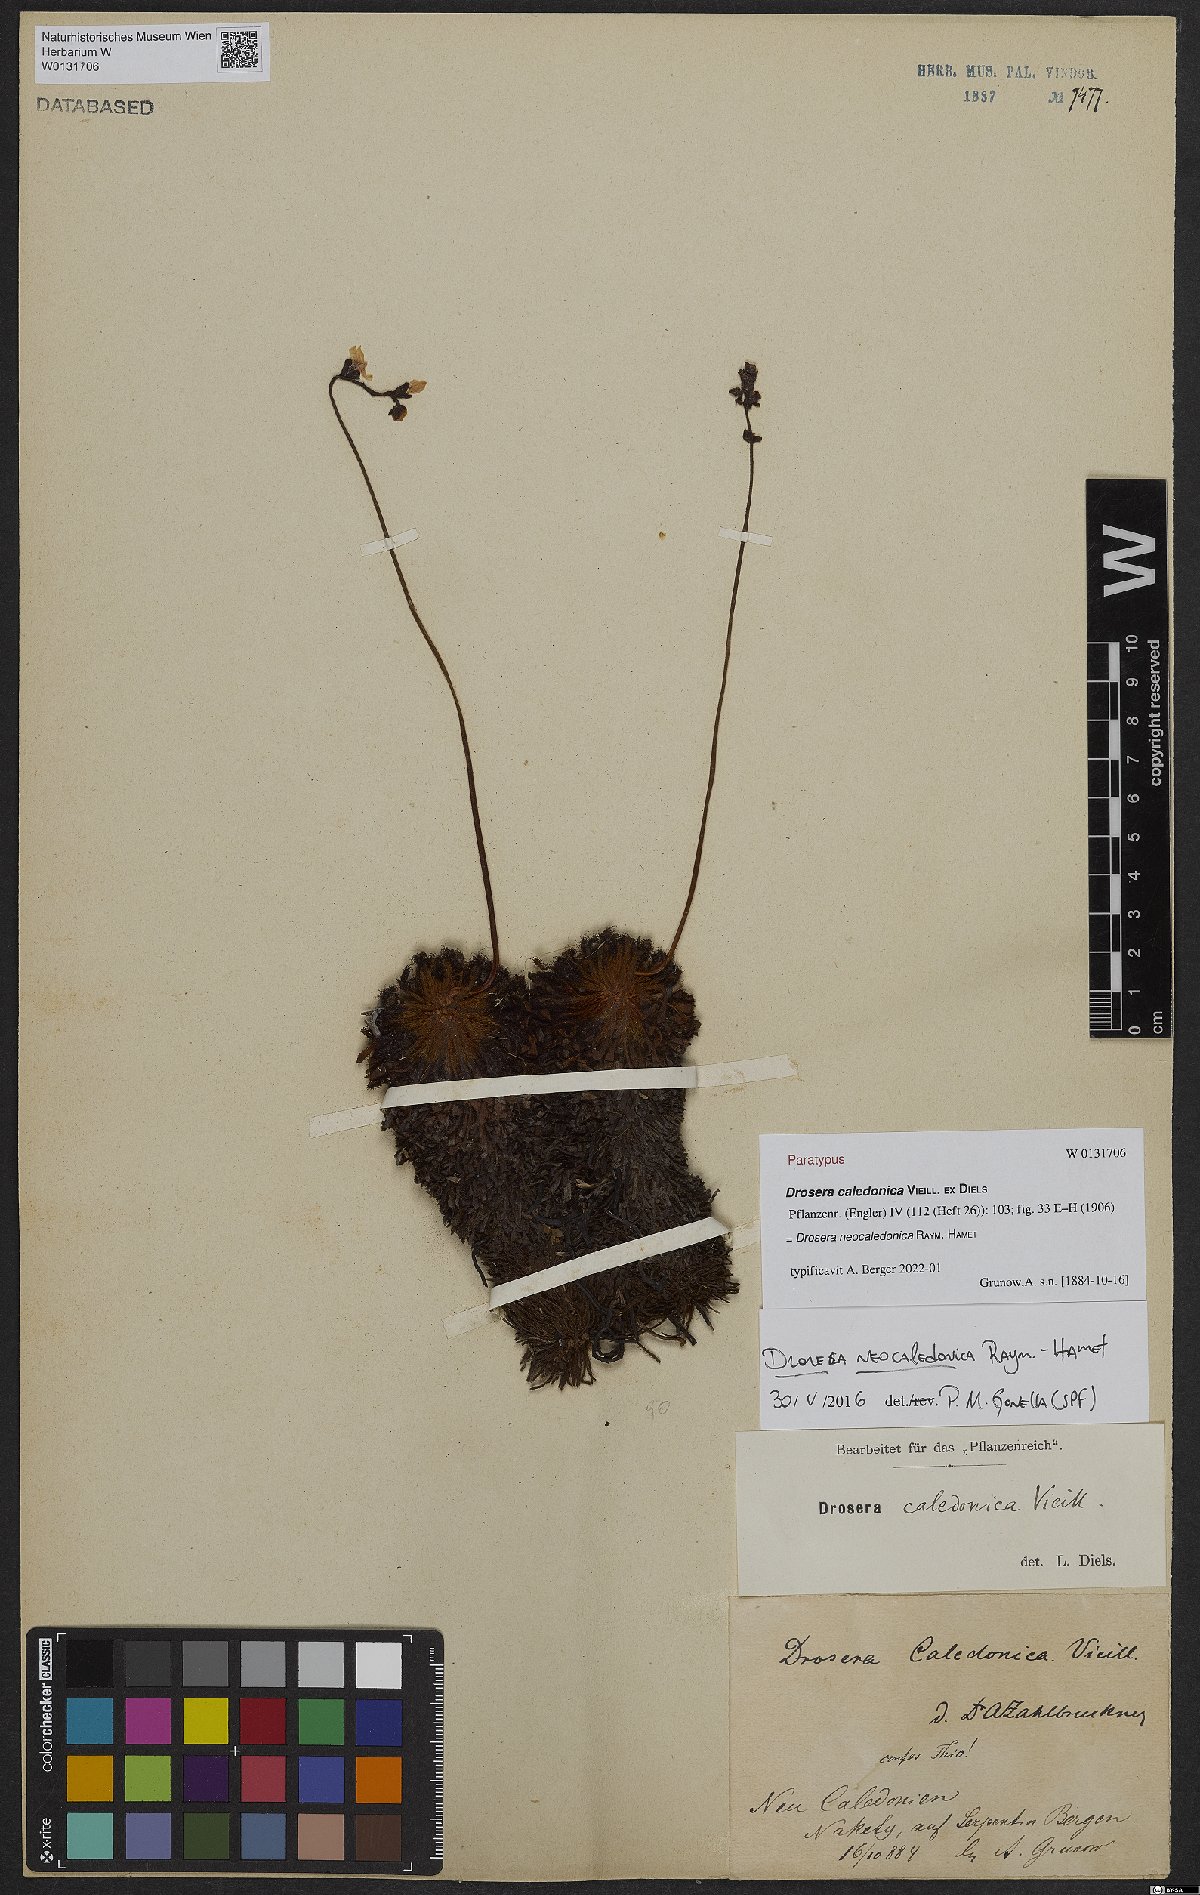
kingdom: Plantae
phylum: Tracheophyta
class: Magnoliopsida
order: Caryophyllales
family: Droseraceae
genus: Drosera
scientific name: Drosera neocaledonica
